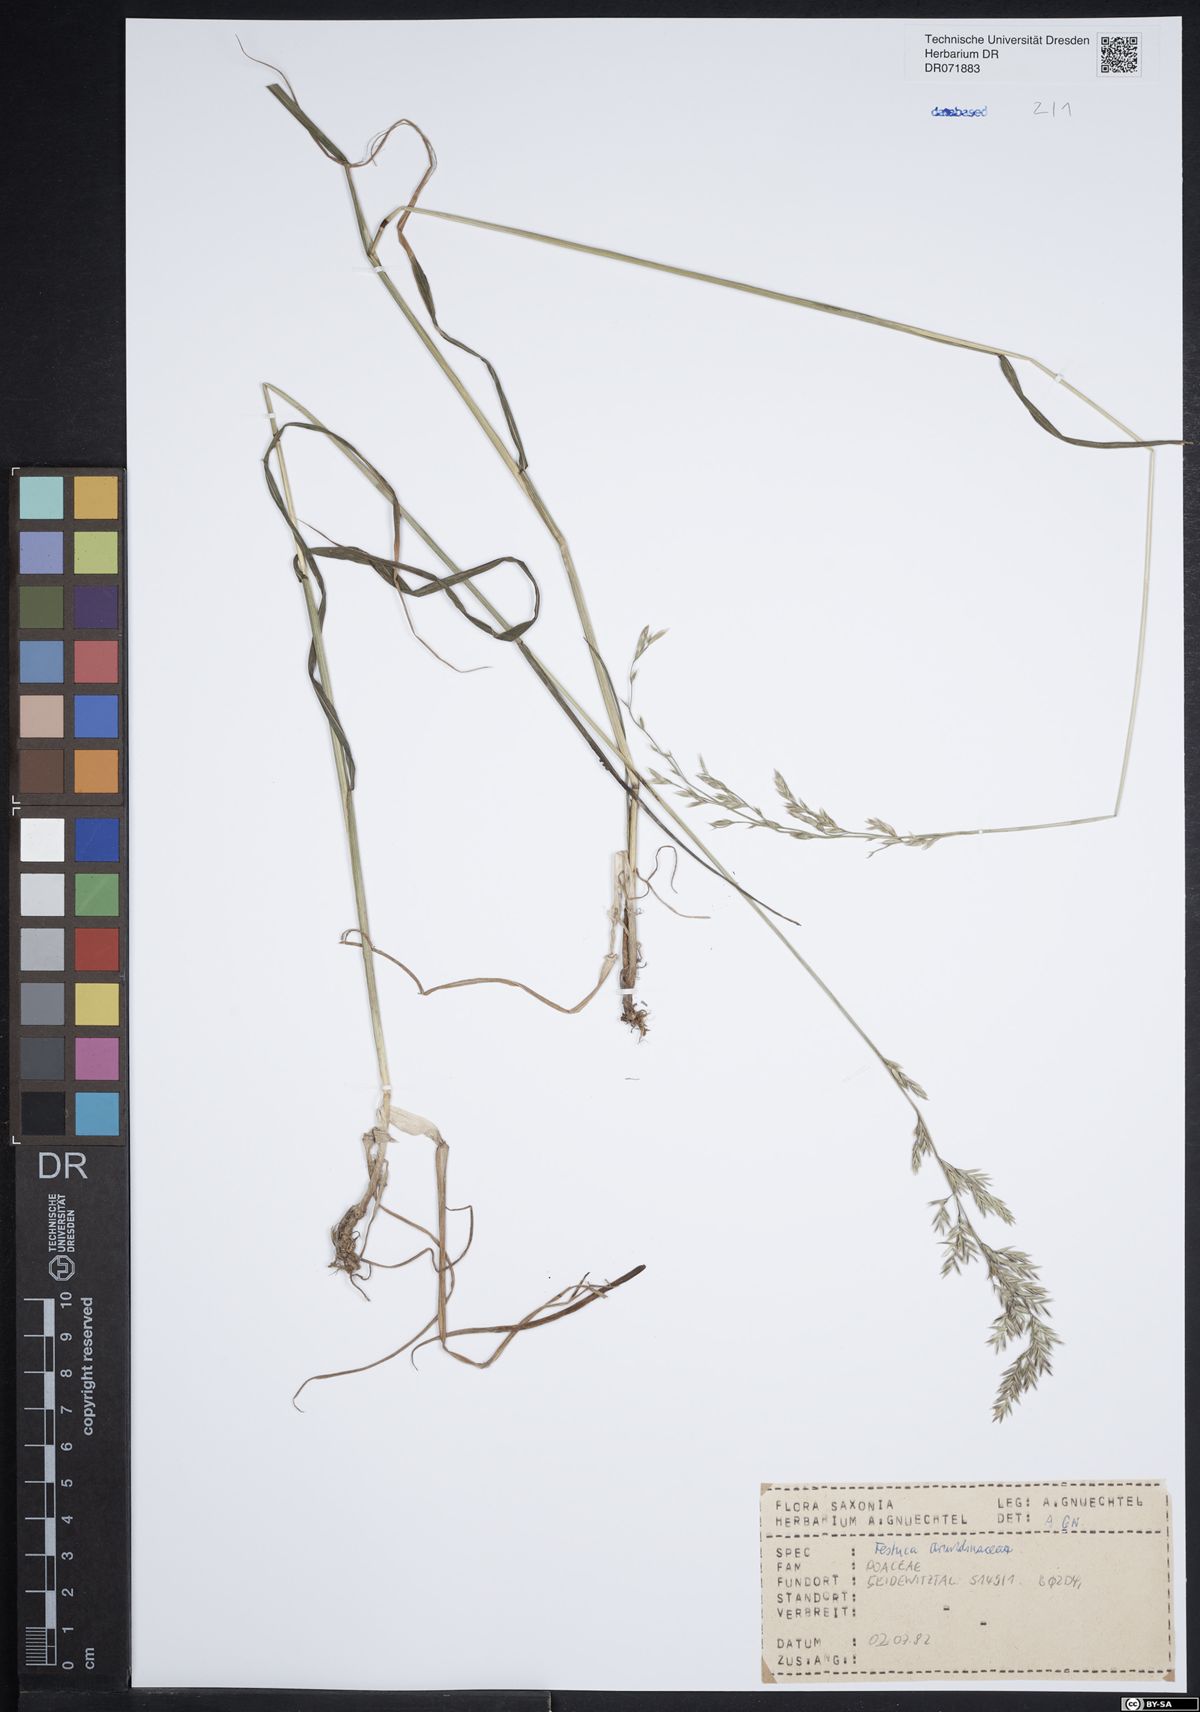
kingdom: Plantae
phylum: Tracheophyta
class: Liliopsida
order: Poales
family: Poaceae
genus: Lolium
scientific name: Lolium arundinaceum
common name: Reed fescue
